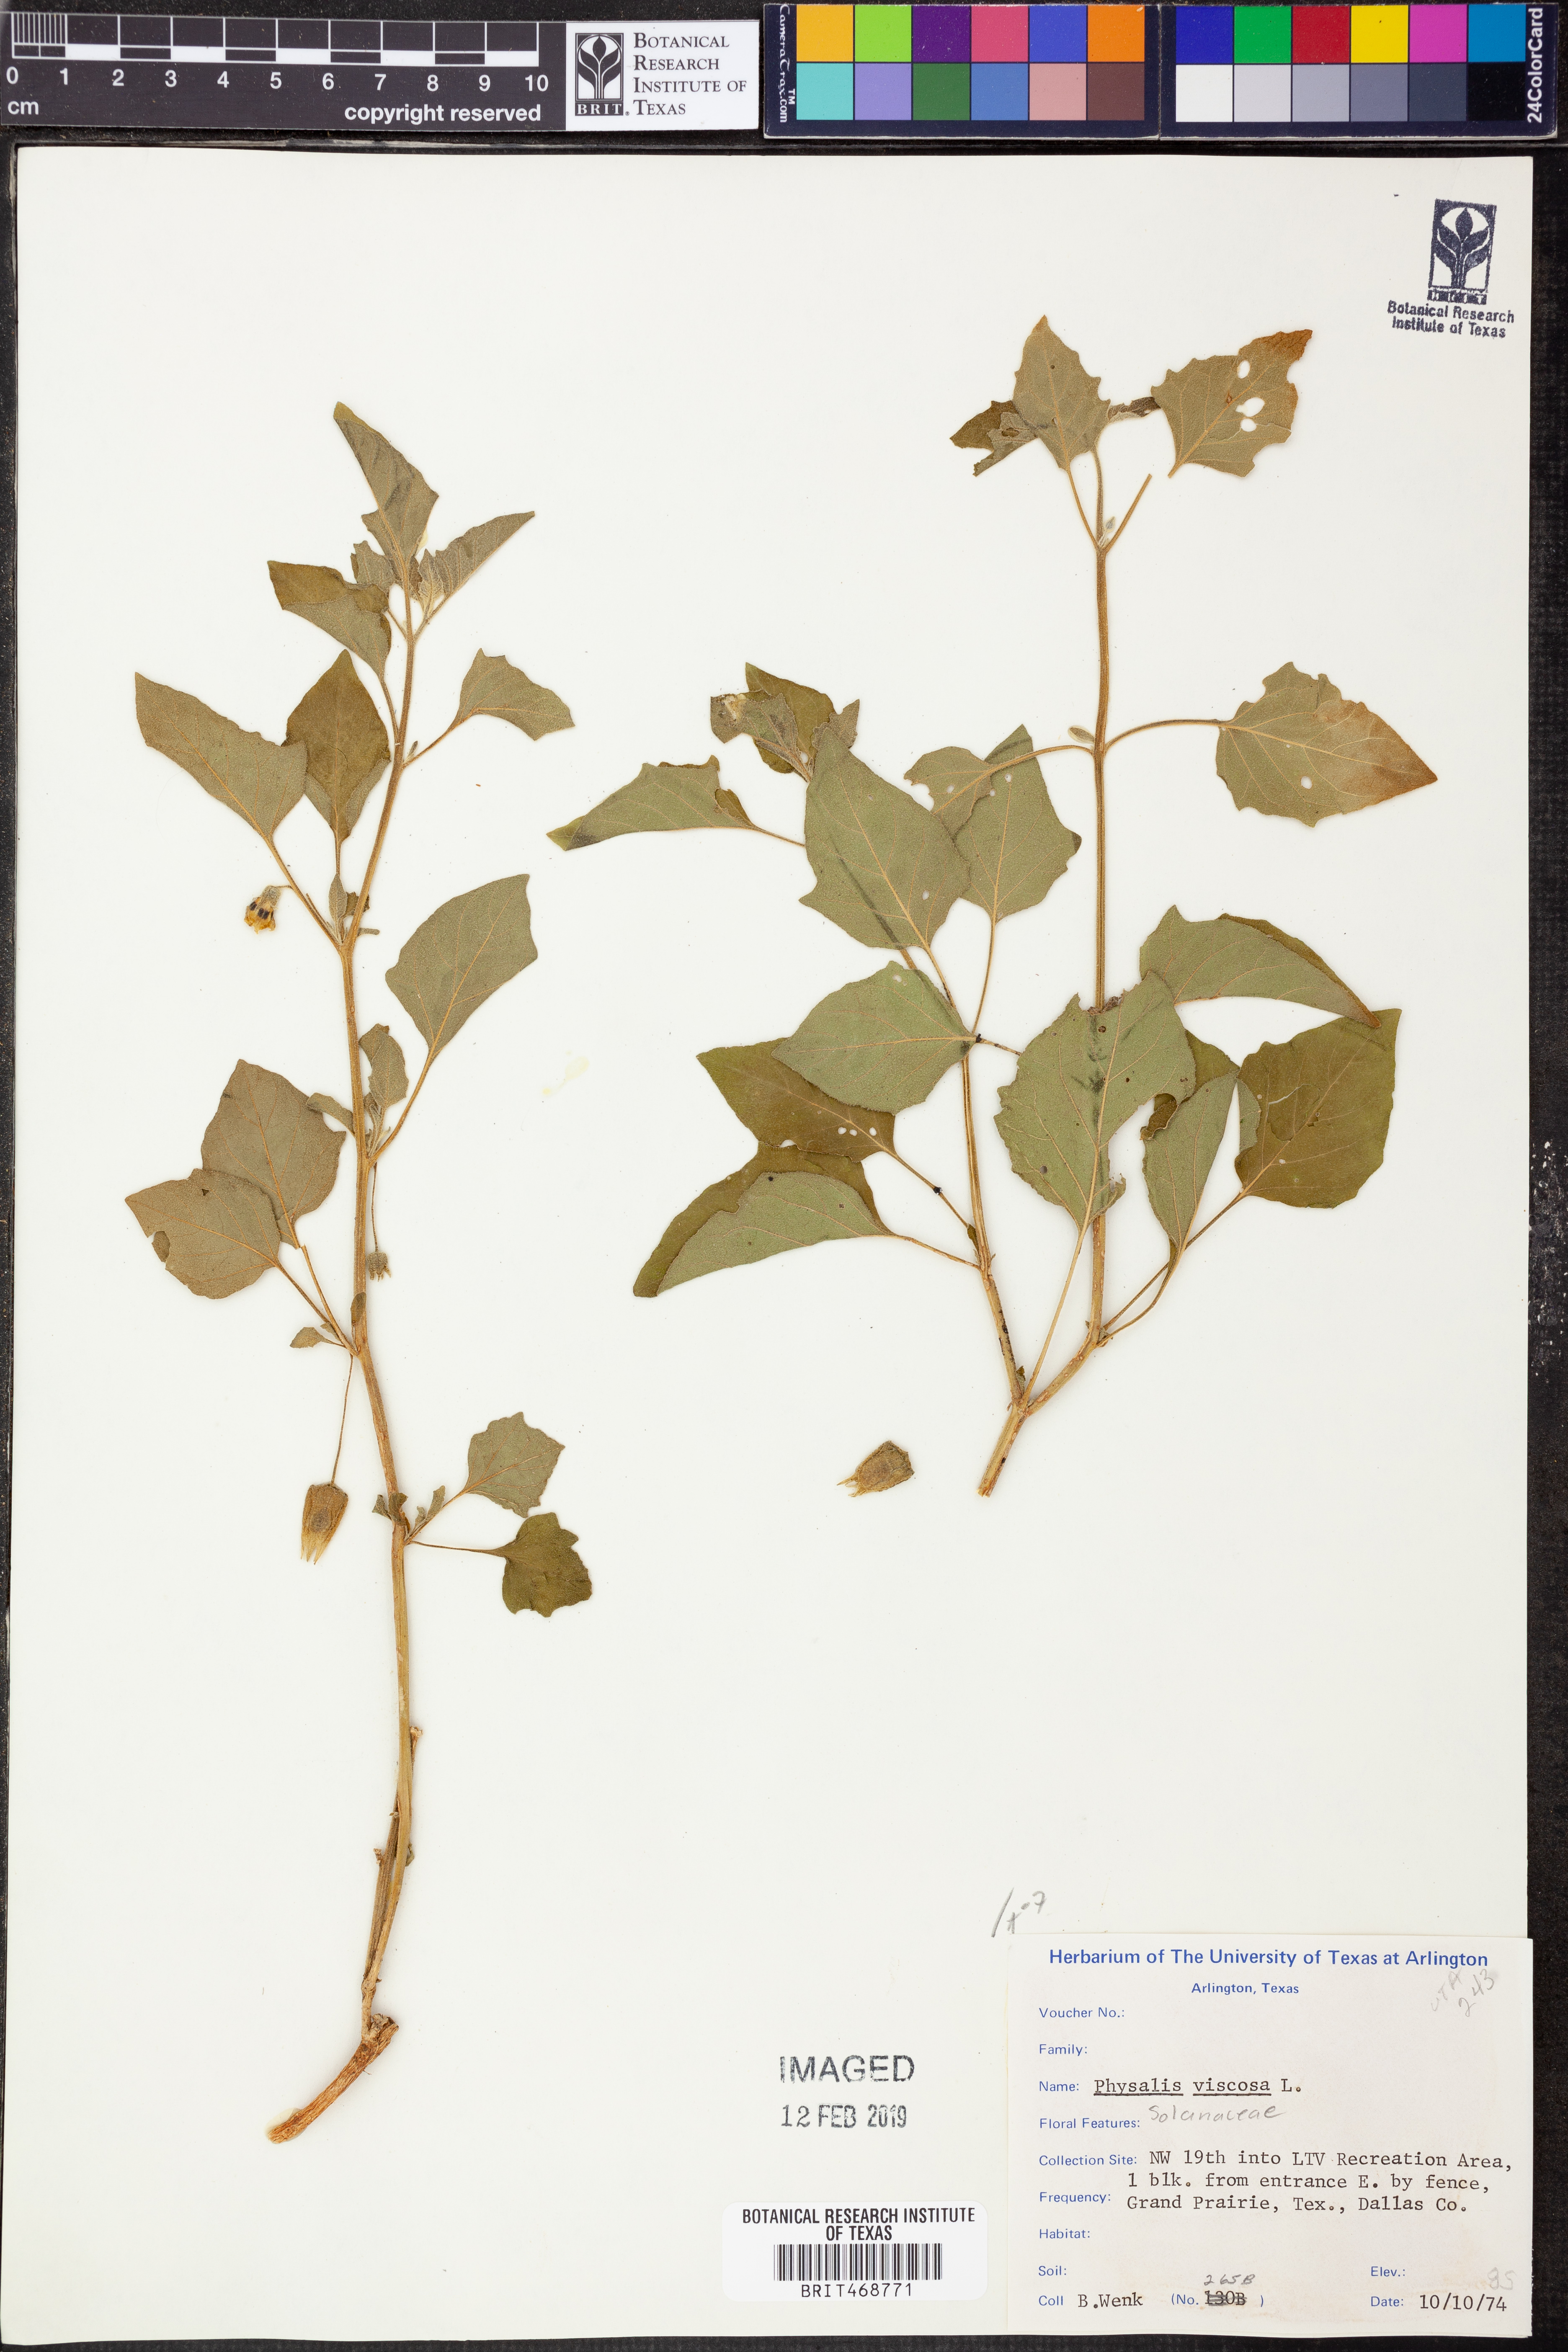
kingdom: Plantae
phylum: Tracheophyta
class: Magnoliopsida
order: Solanales
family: Solanaceae
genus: Physalis
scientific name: Physalis viscosa
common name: Stellate ground-cherry
